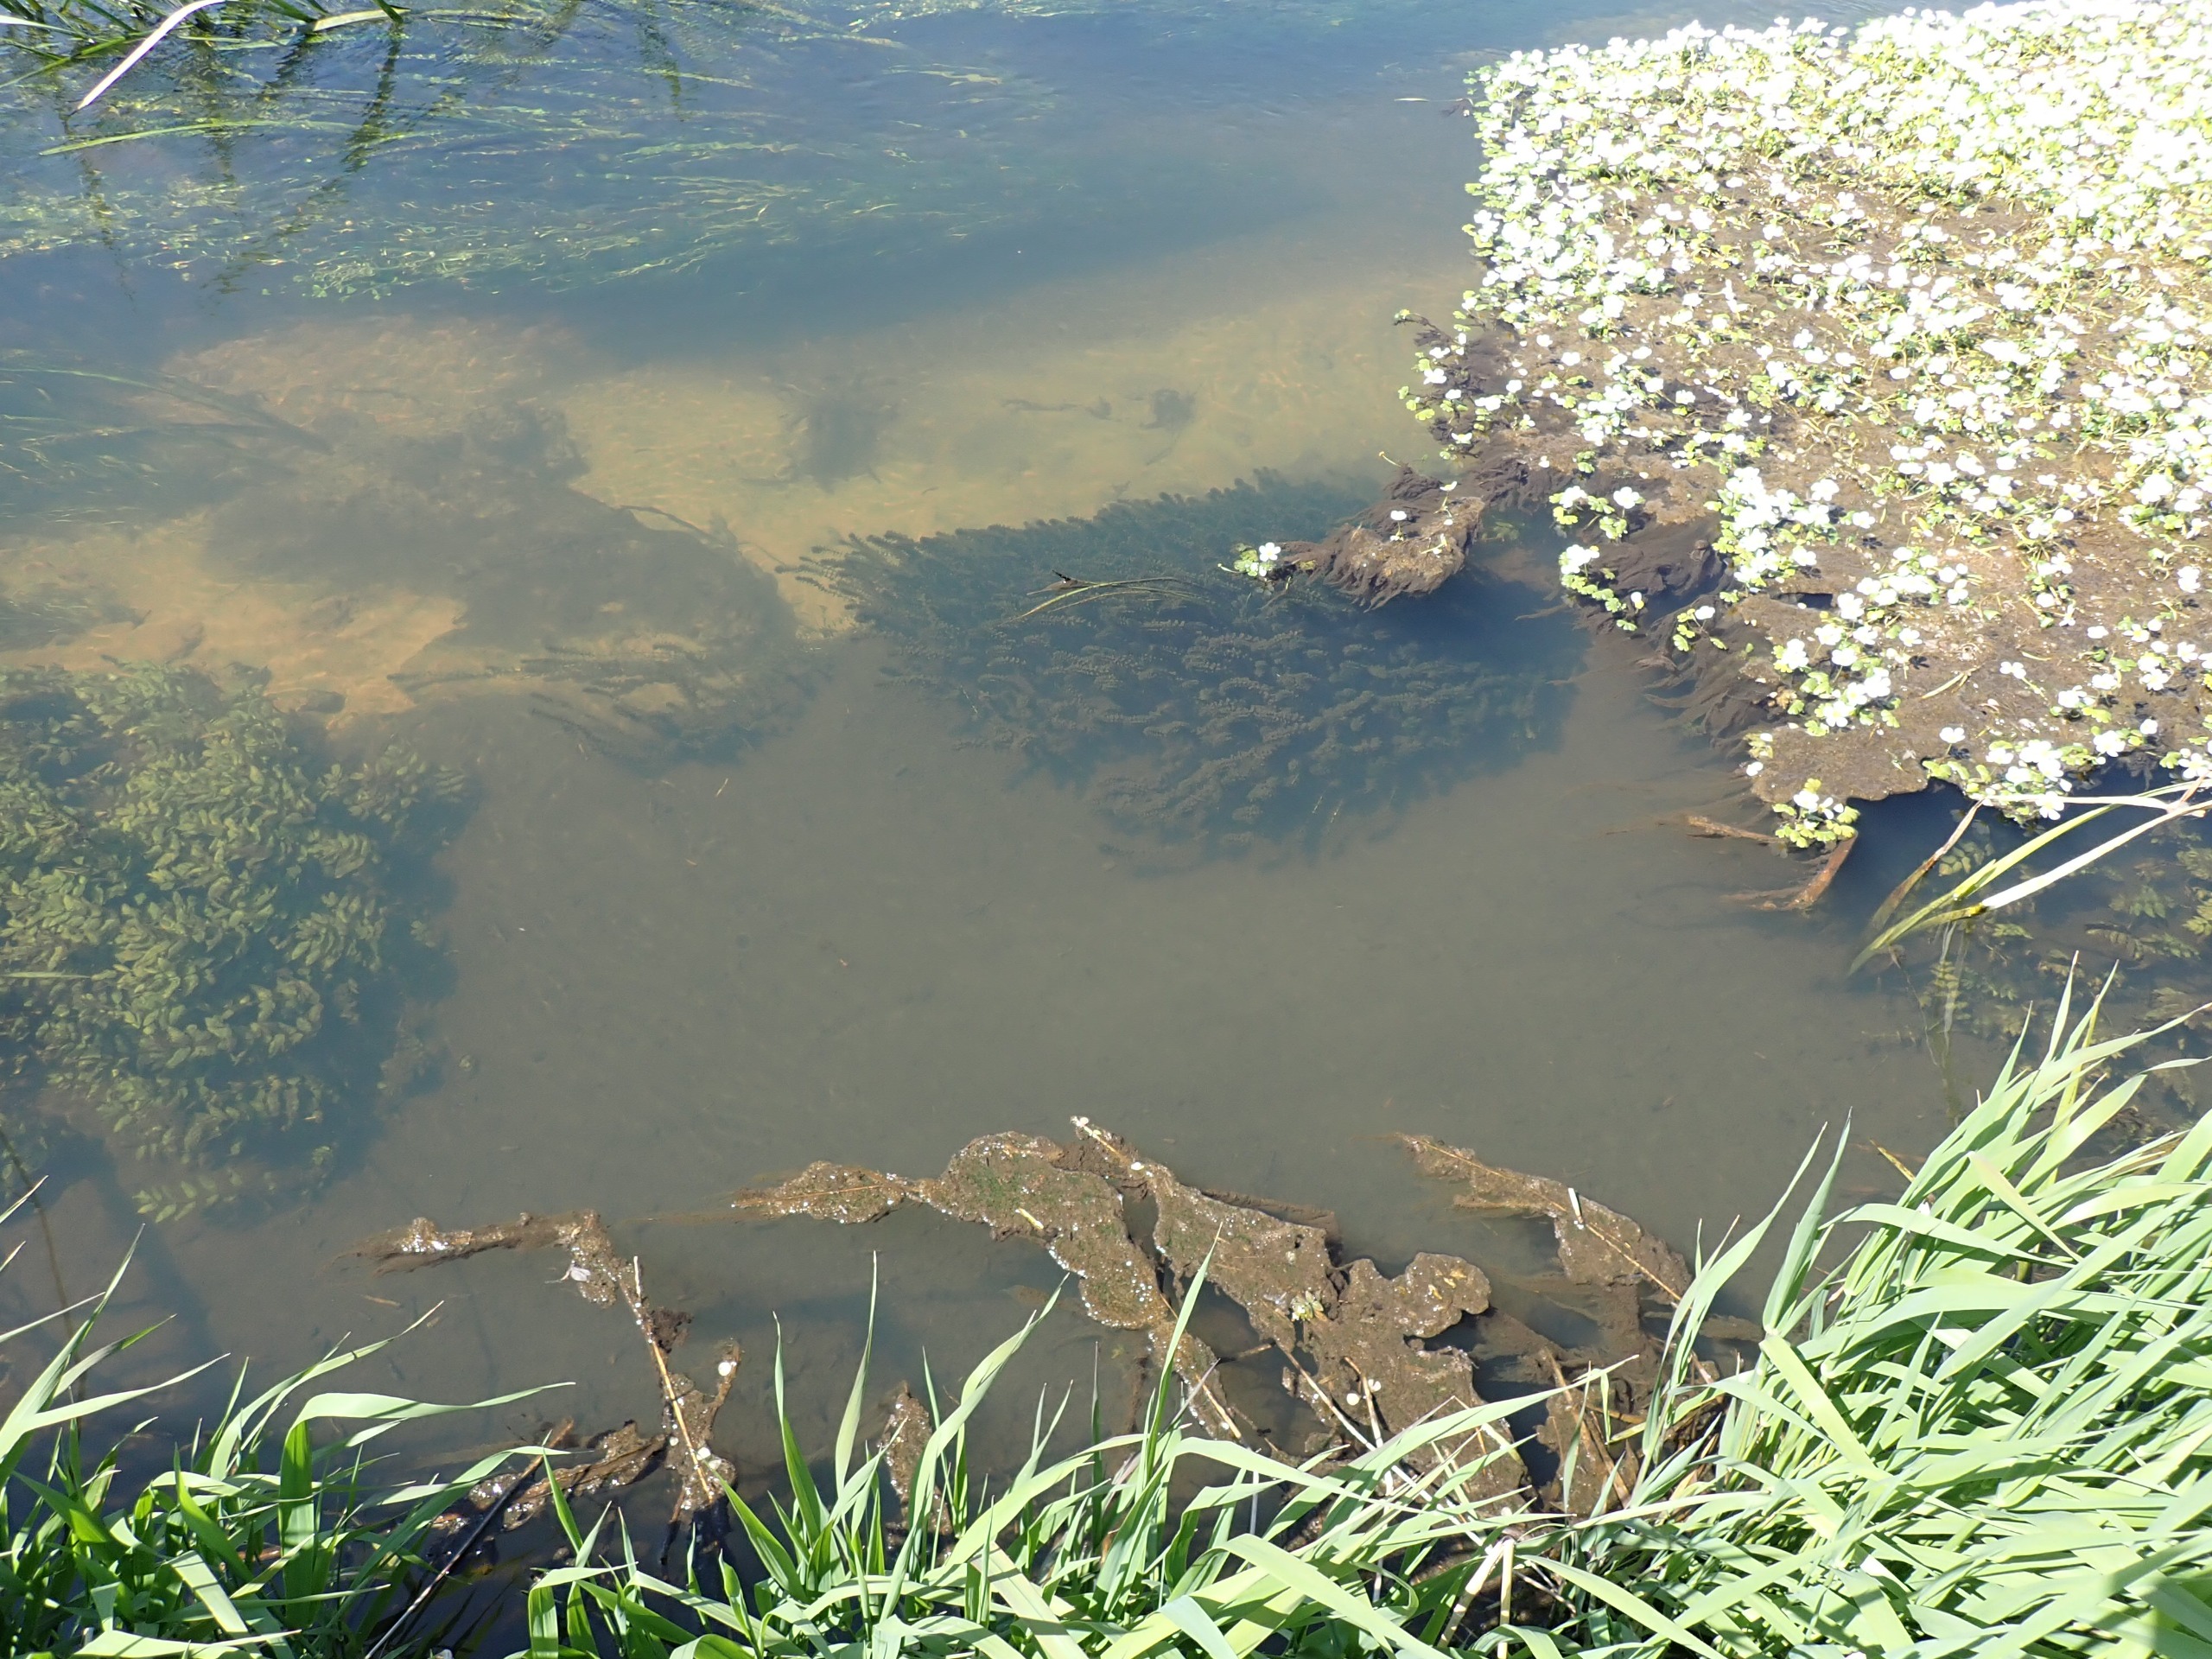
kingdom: Plantae
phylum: Tracheophyta
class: Liliopsida
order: Alismatales
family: Hydrocharitaceae
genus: Elodea
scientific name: Elodea canadensis
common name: Vandpest
